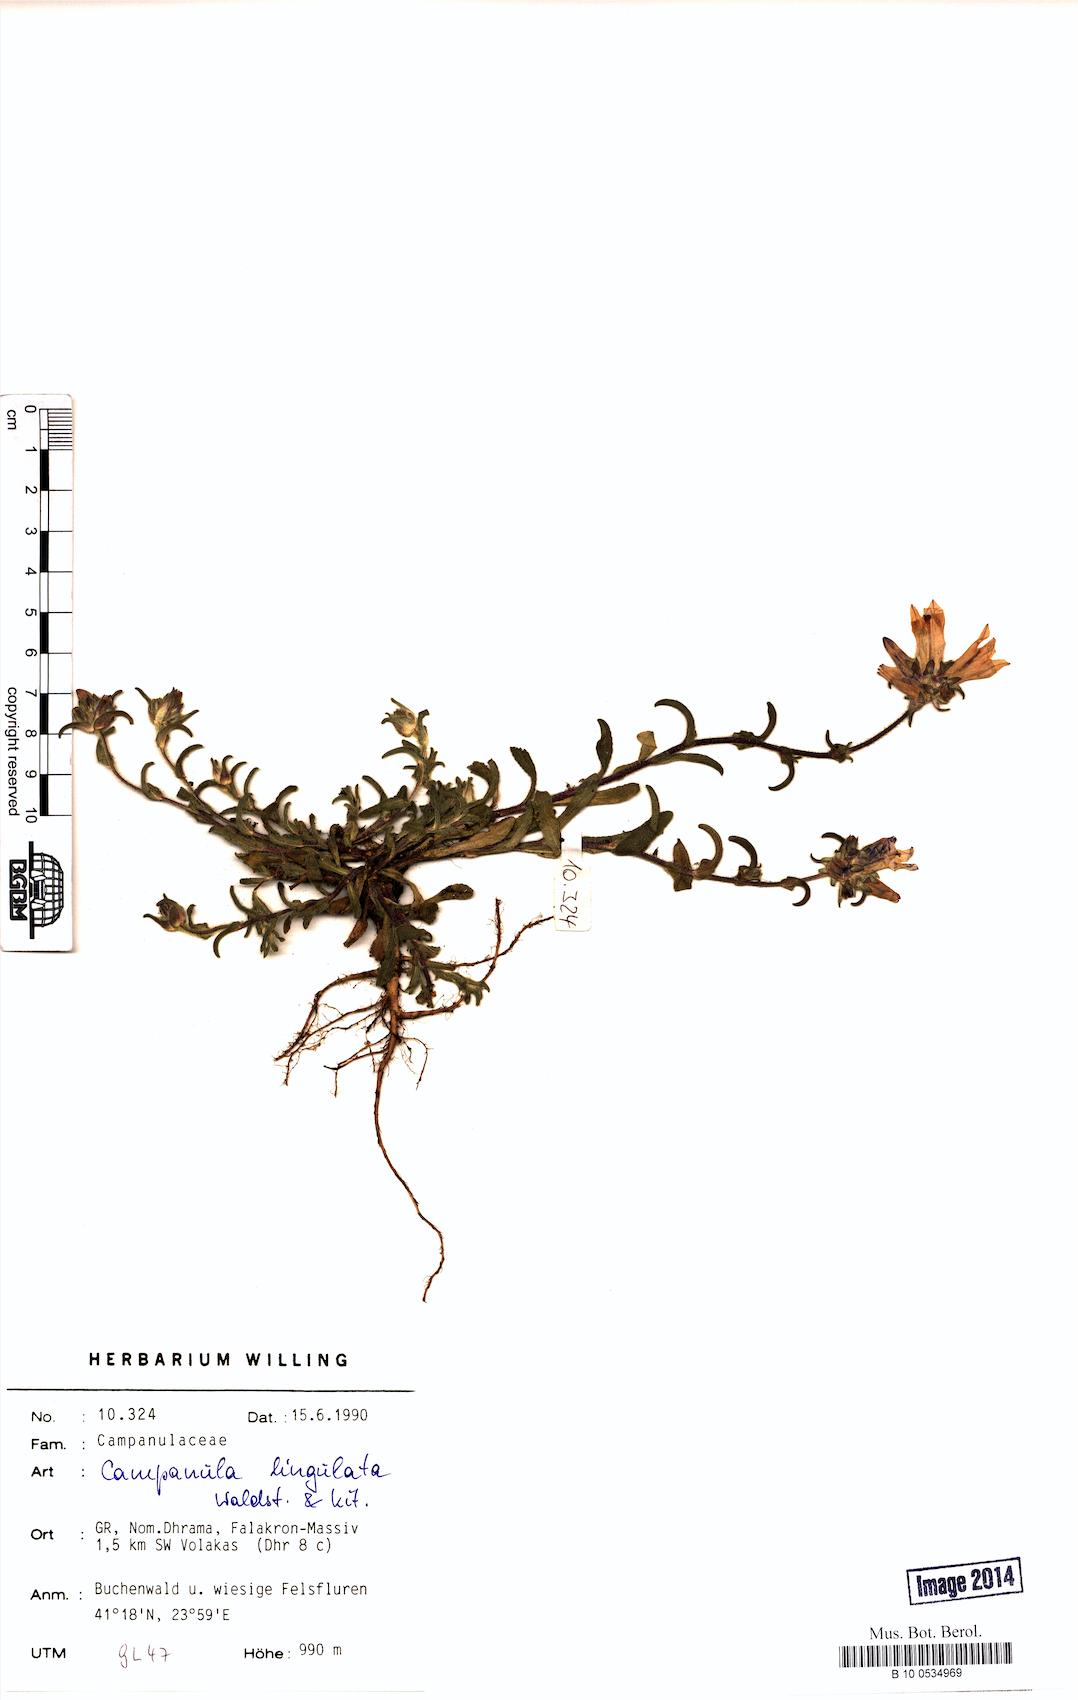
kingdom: Plantae
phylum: Tracheophyta
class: Magnoliopsida
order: Asterales
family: Campanulaceae
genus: Campanula
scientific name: Campanula lingulata
